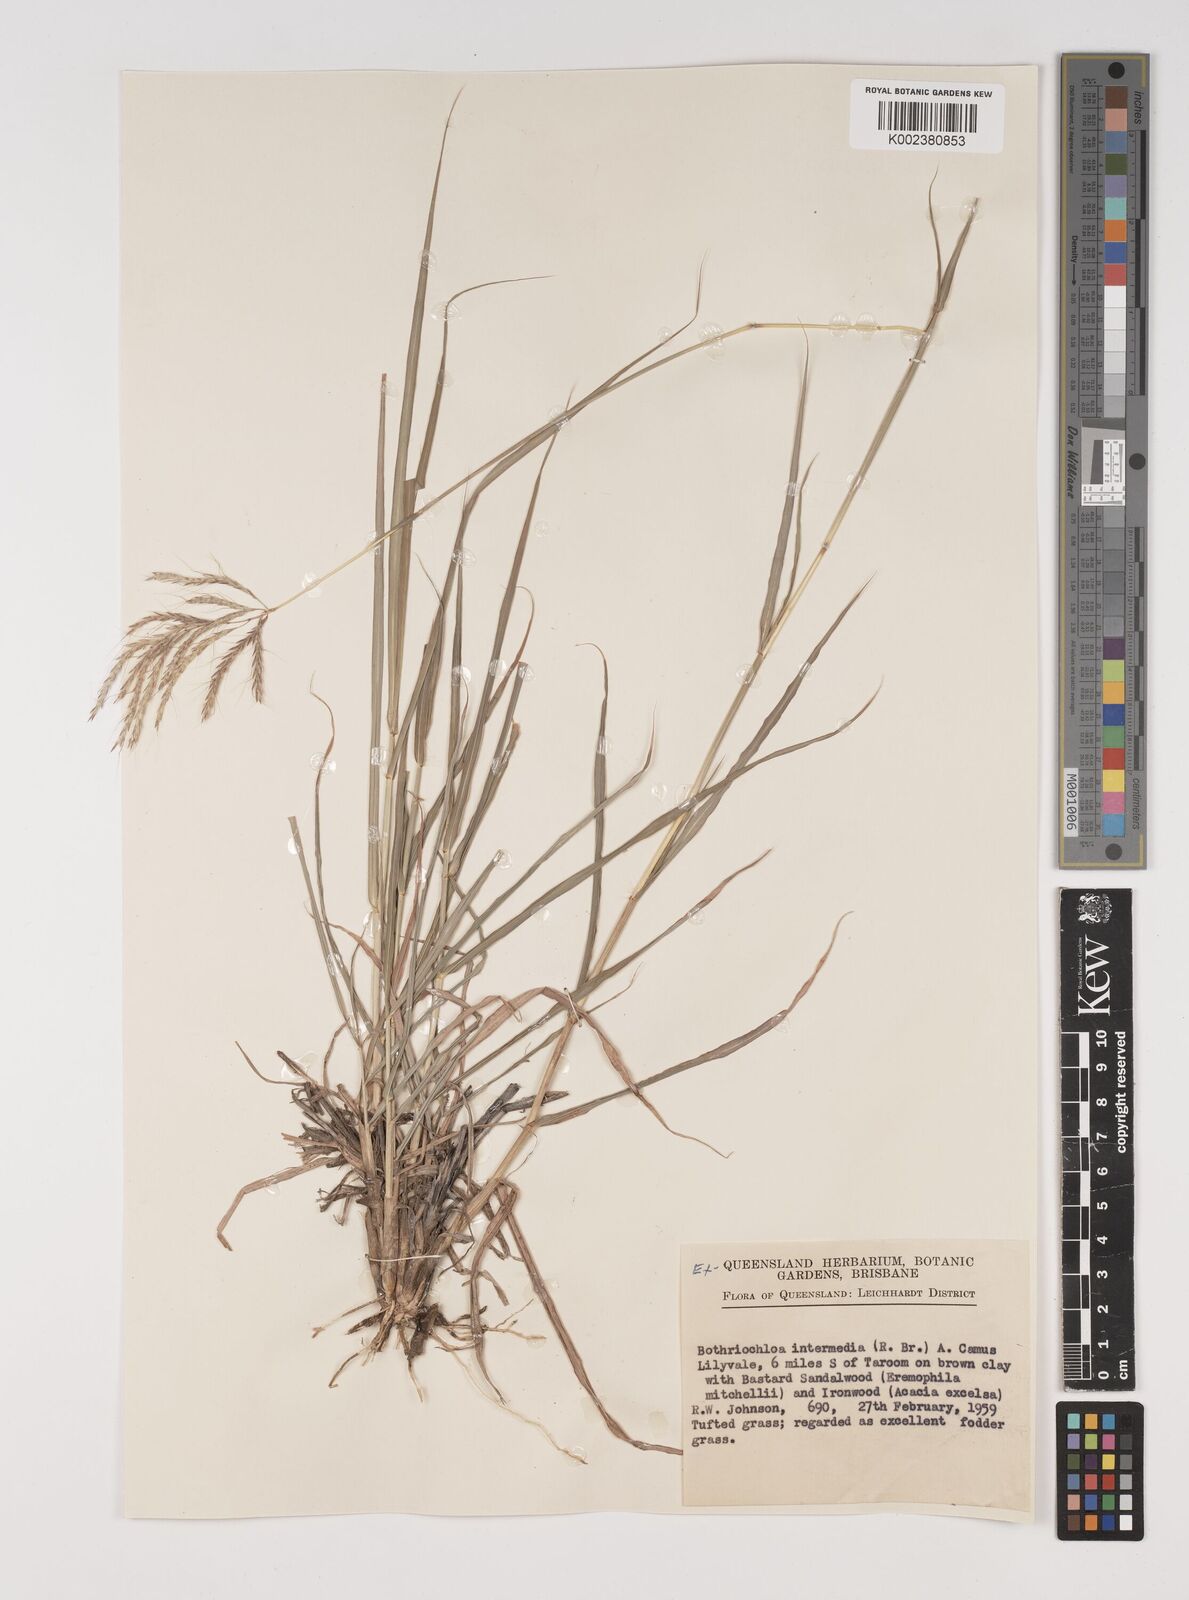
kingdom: Plantae
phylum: Tracheophyta
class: Liliopsida
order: Poales
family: Poaceae
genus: Bothriochloa
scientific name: Bothriochloa bladhii
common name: Caucasian bluestem
